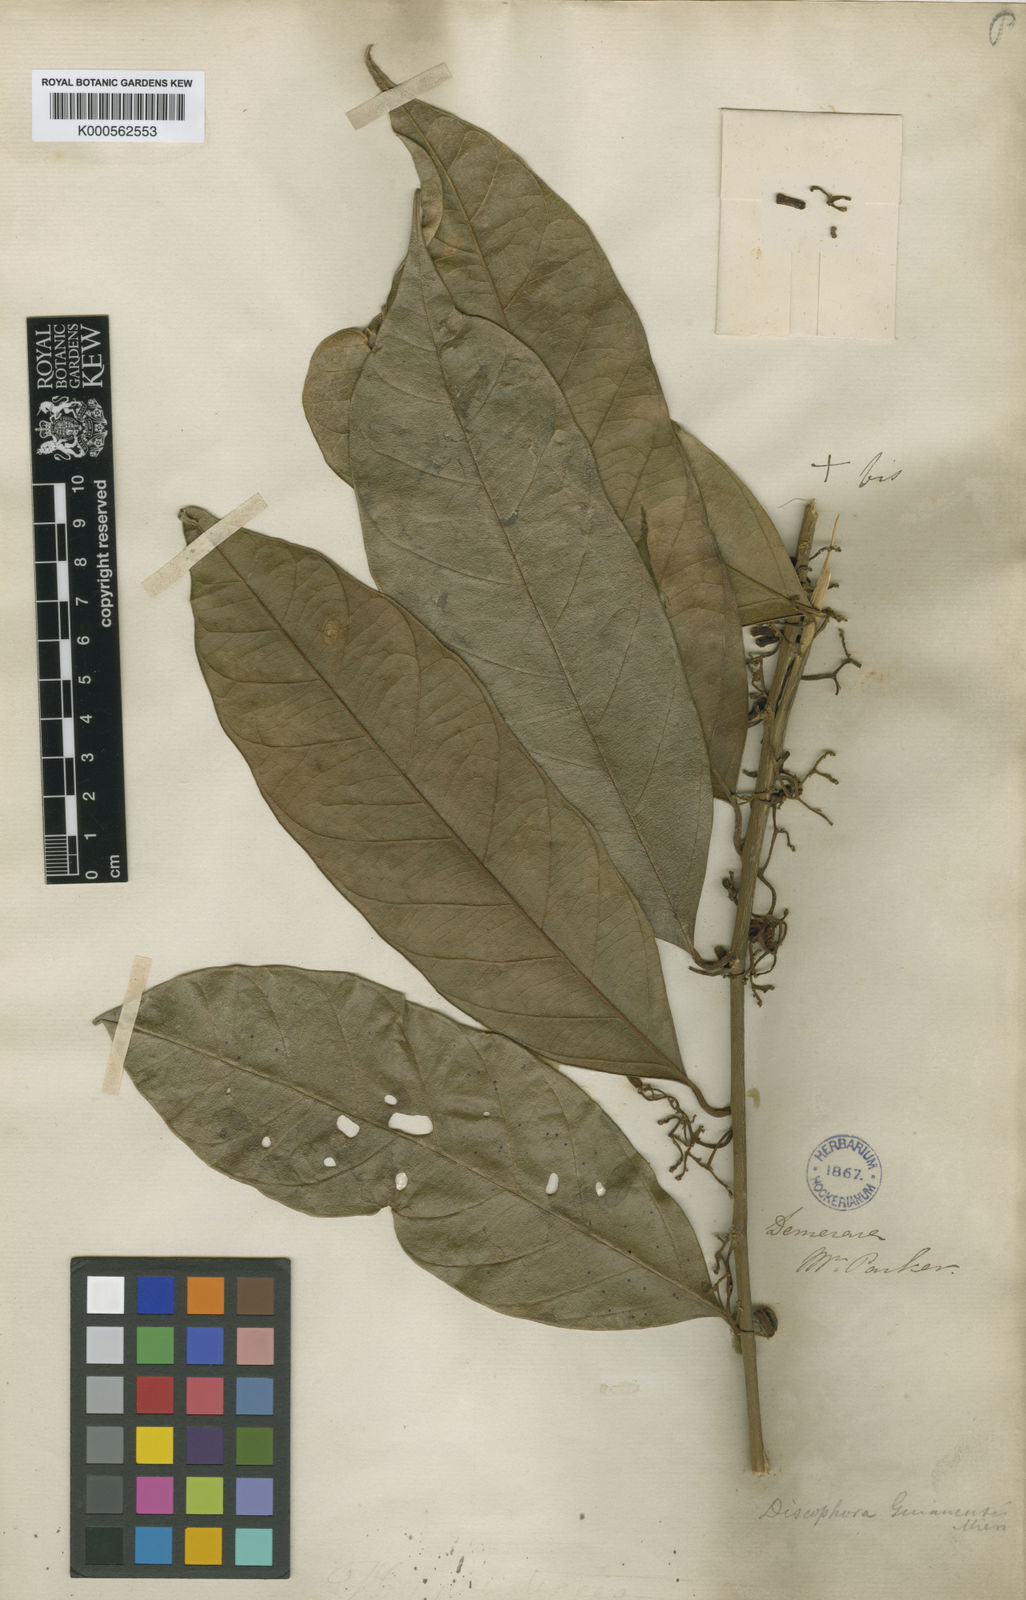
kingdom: Plantae
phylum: Tracheophyta
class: Magnoliopsida
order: Cardiopteridales
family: Stemonuraceae
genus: Discophora
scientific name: Discophora guianensis
